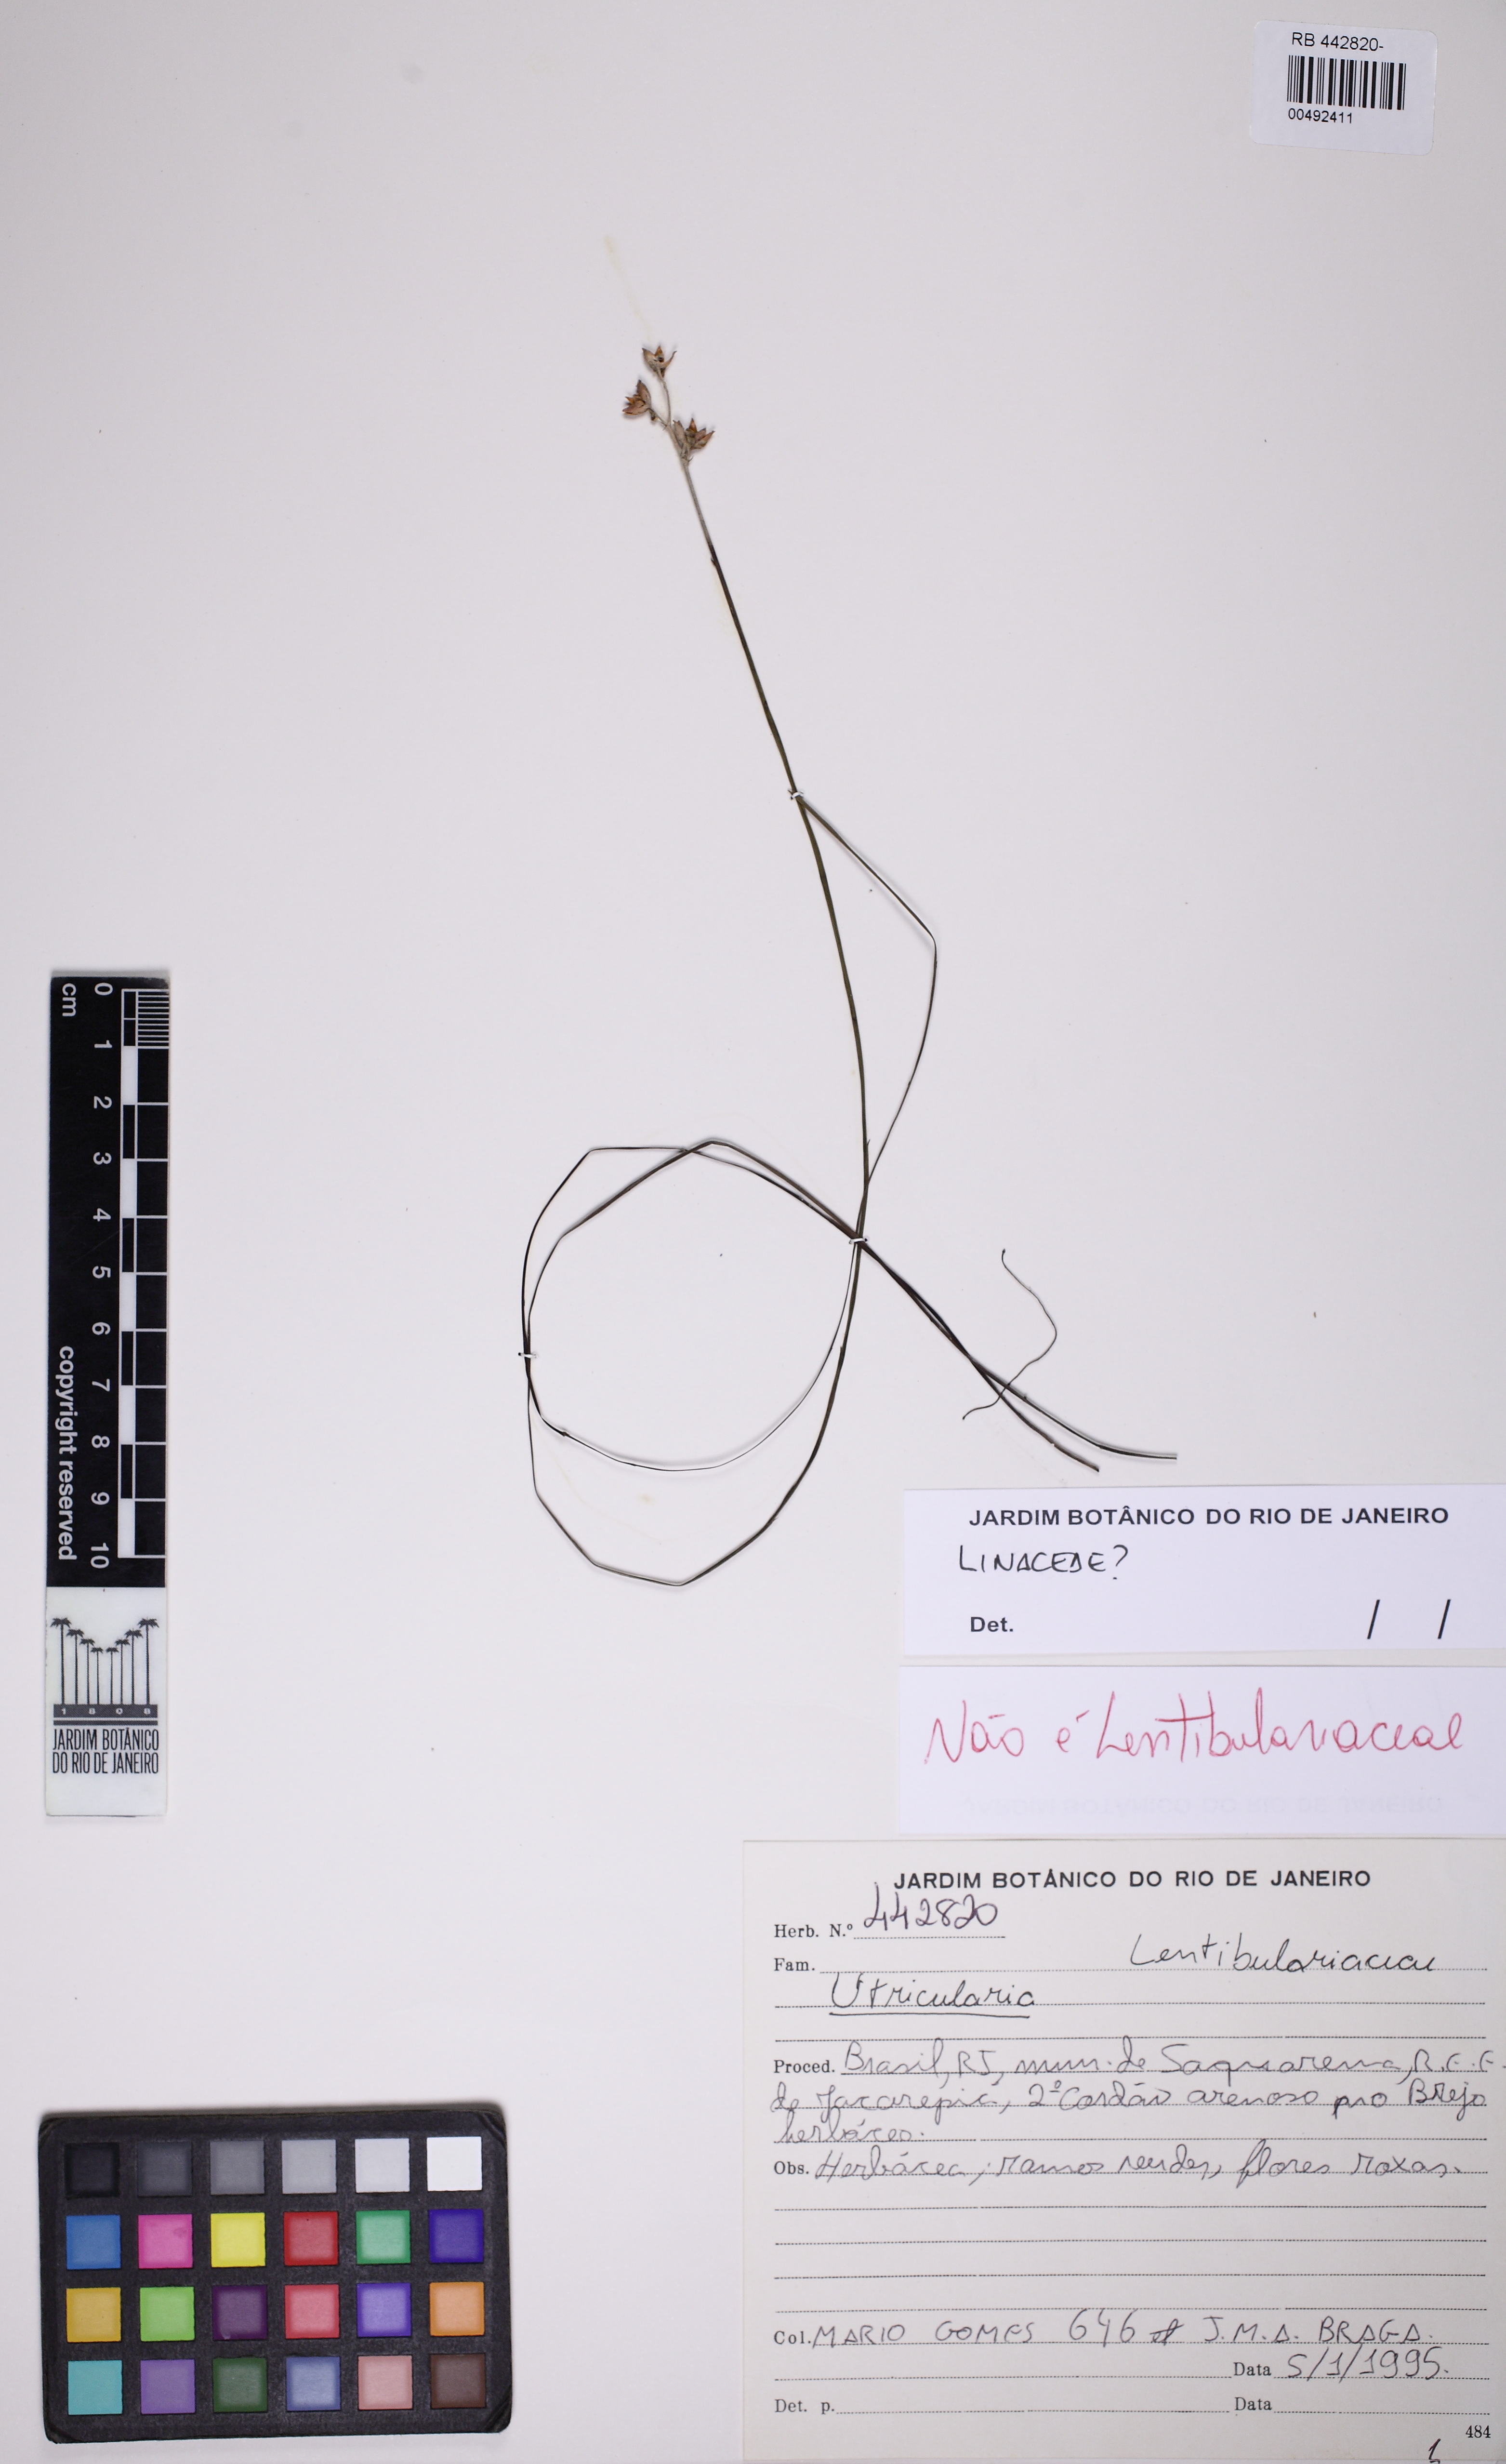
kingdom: Plantae
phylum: Tracheophyta
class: Magnoliopsida
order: Solanales
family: Solanaceae
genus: Schwenckia
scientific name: Schwenckia
